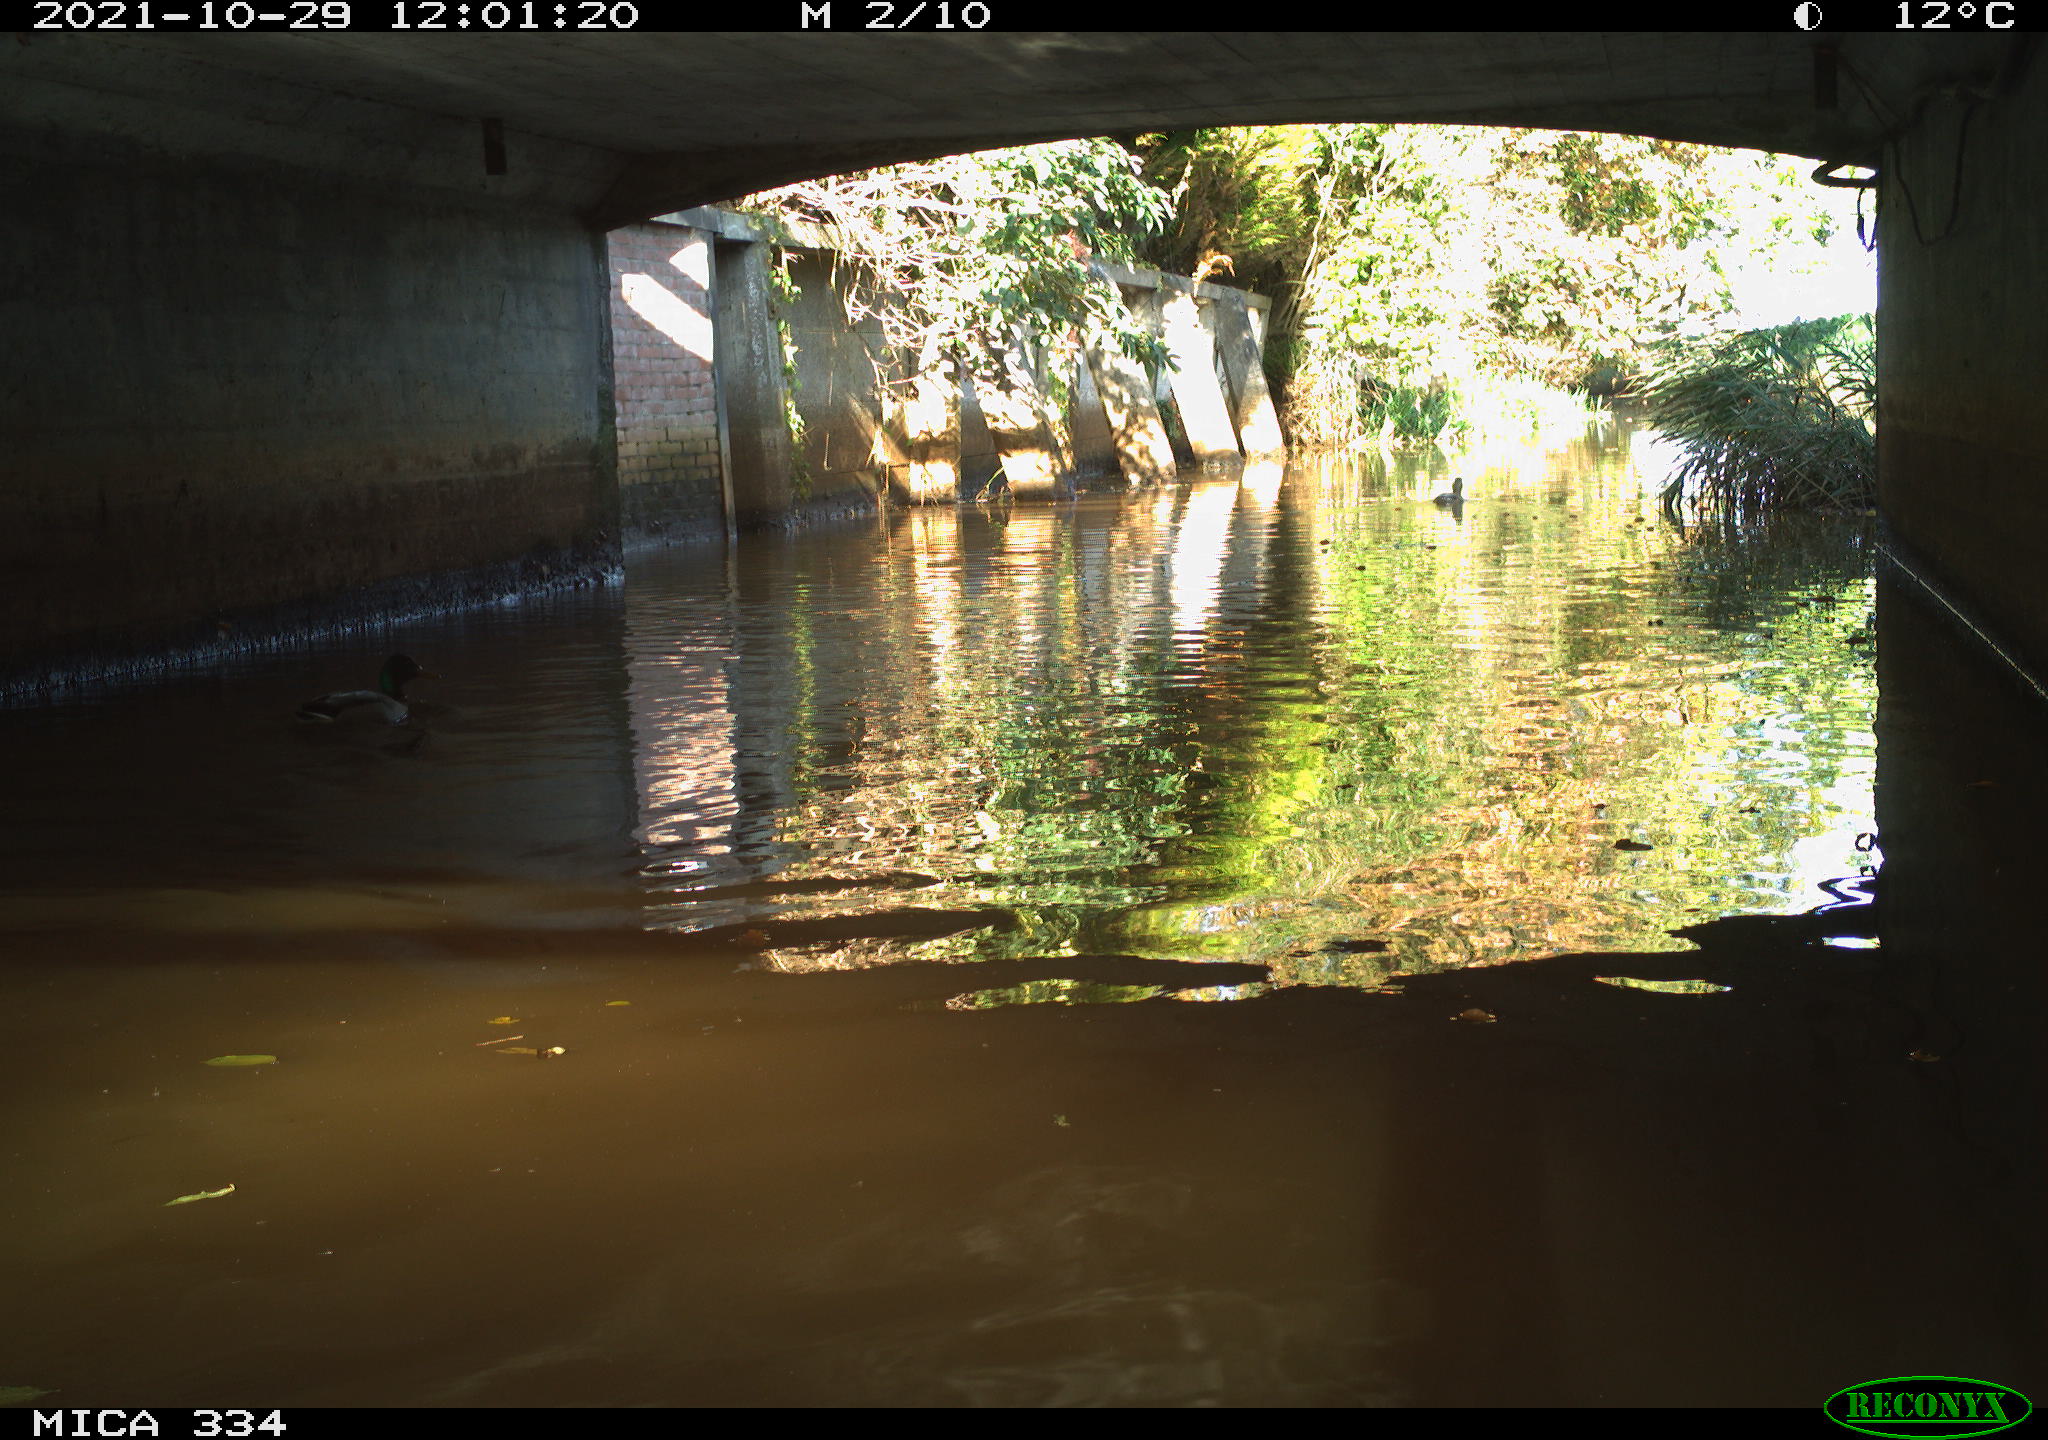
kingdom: Animalia
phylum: Chordata
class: Aves
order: Anseriformes
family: Anatidae
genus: Anas
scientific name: Anas platyrhynchos
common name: Mallard
